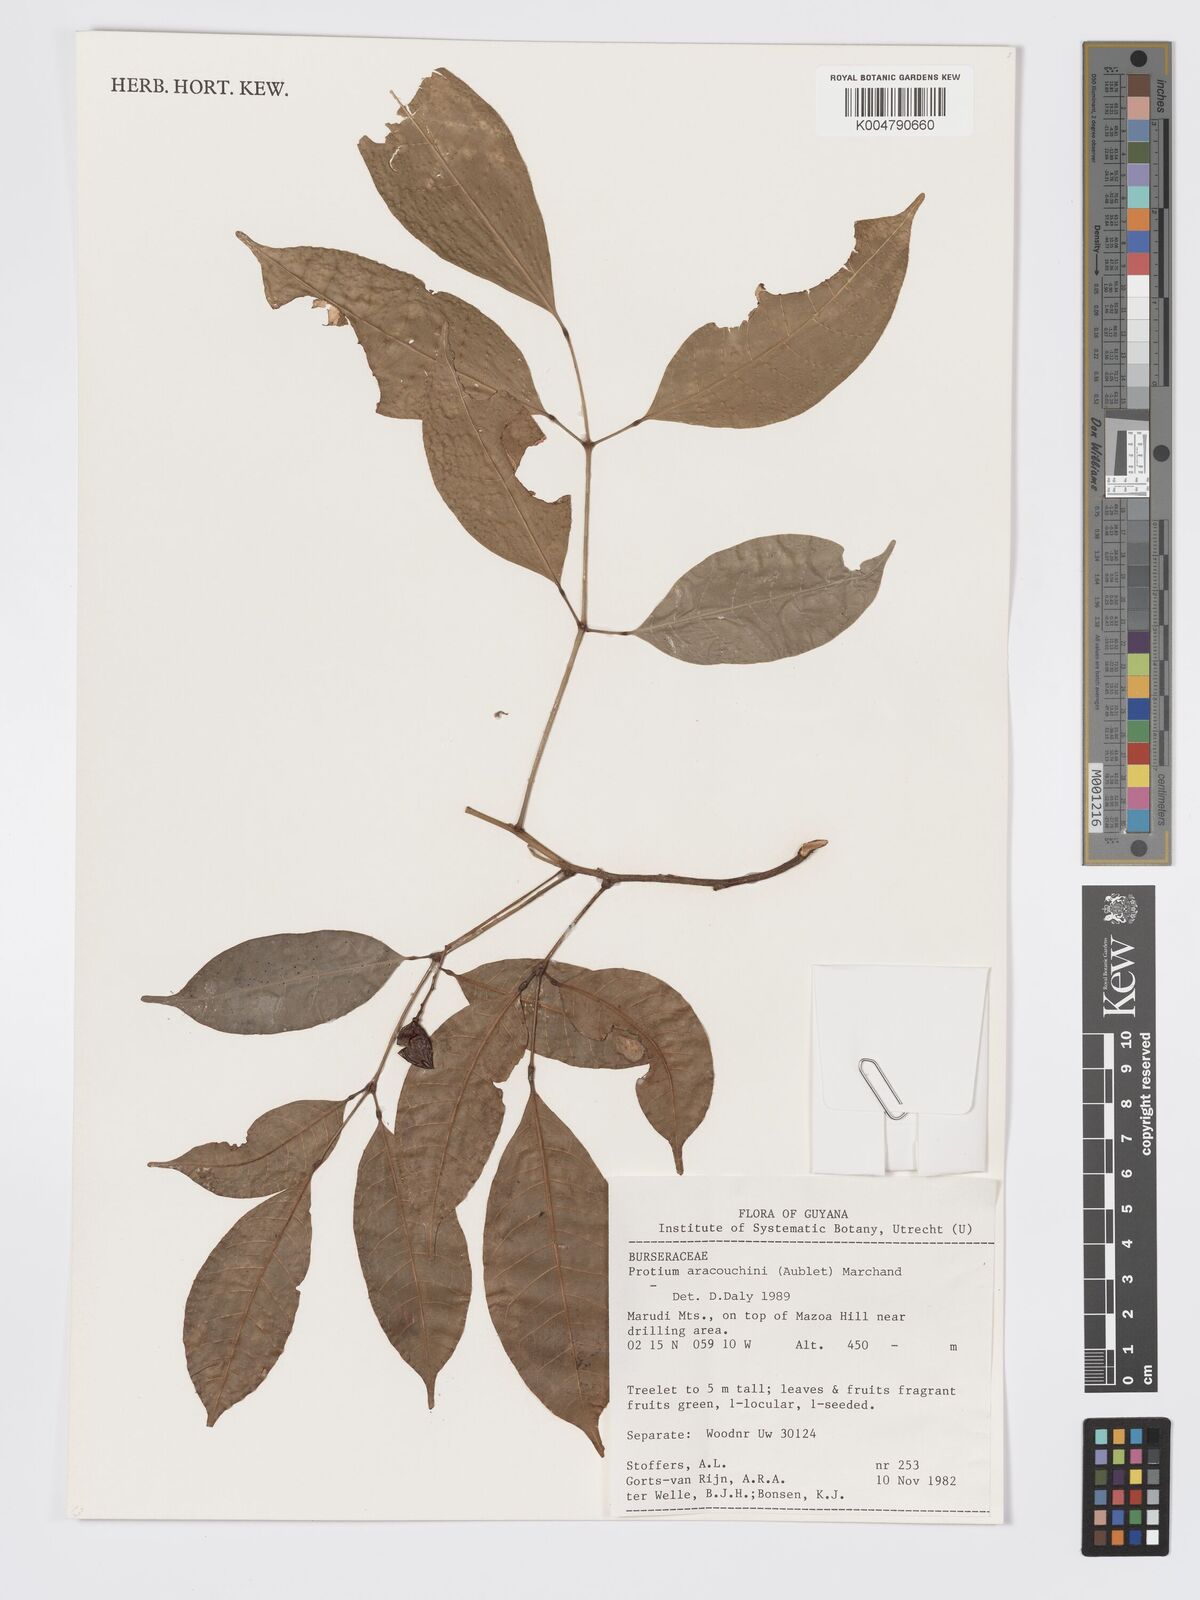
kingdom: Plantae
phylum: Tracheophyta
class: Magnoliopsida
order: Sapindales
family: Burseraceae
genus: Protium
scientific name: Protium aracouchini
